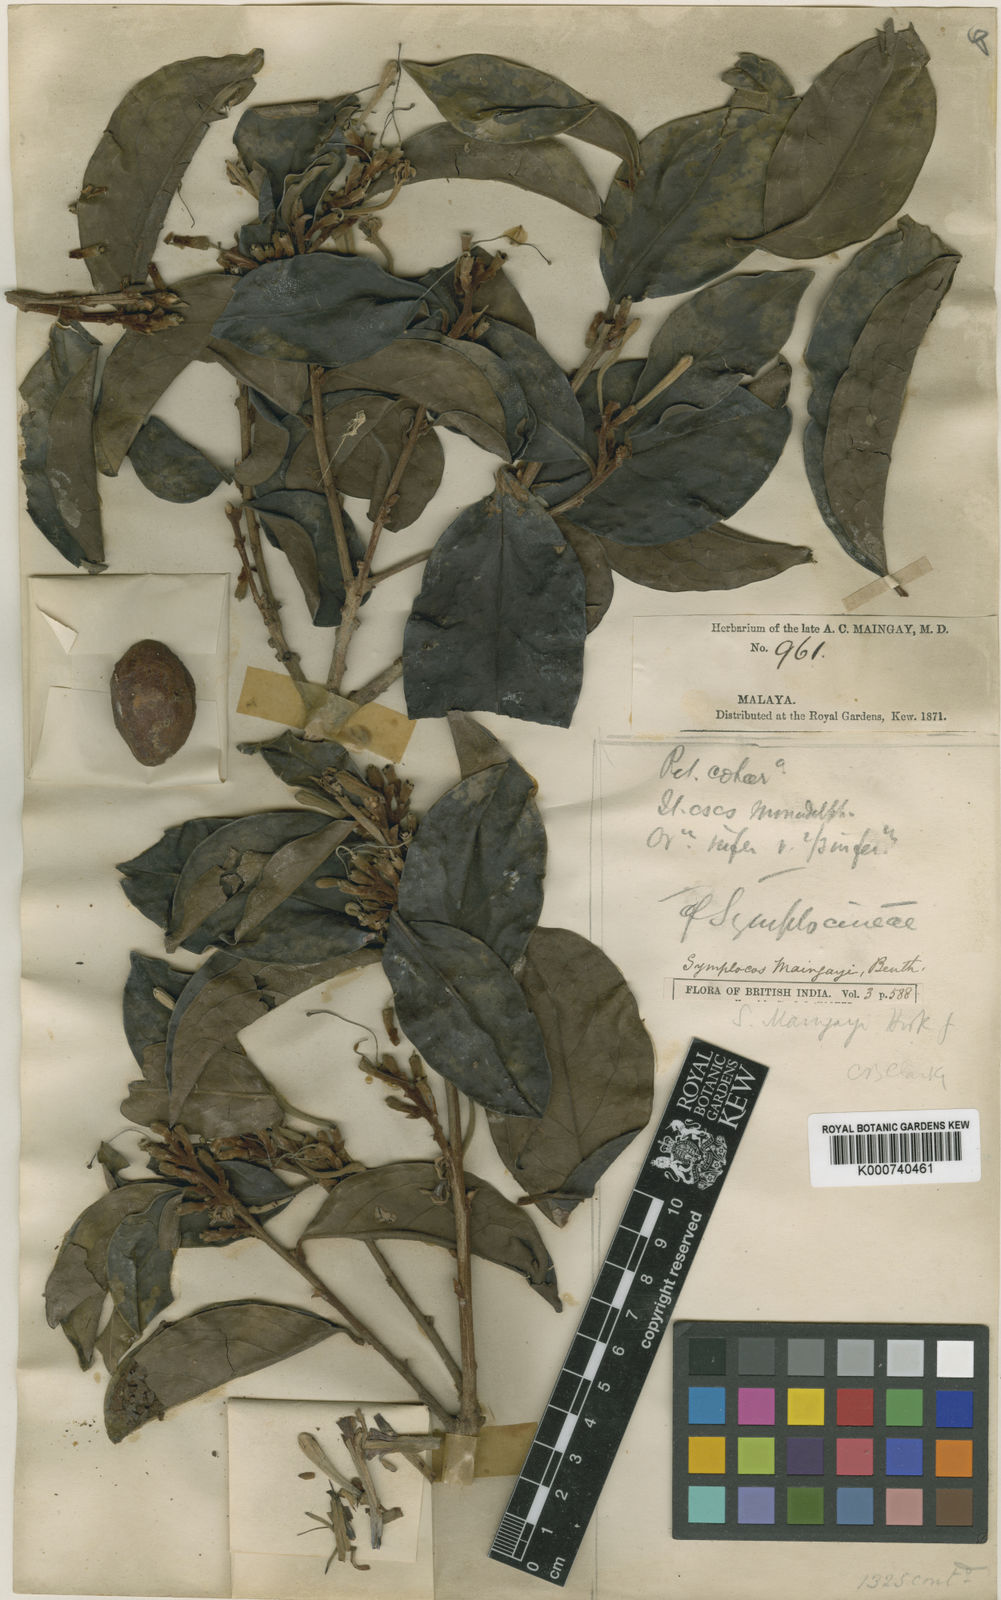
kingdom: Plantae
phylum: Tracheophyta
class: Magnoliopsida
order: Ericales
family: Symplocaceae
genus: Symplocos
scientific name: Symplocos henschelii
